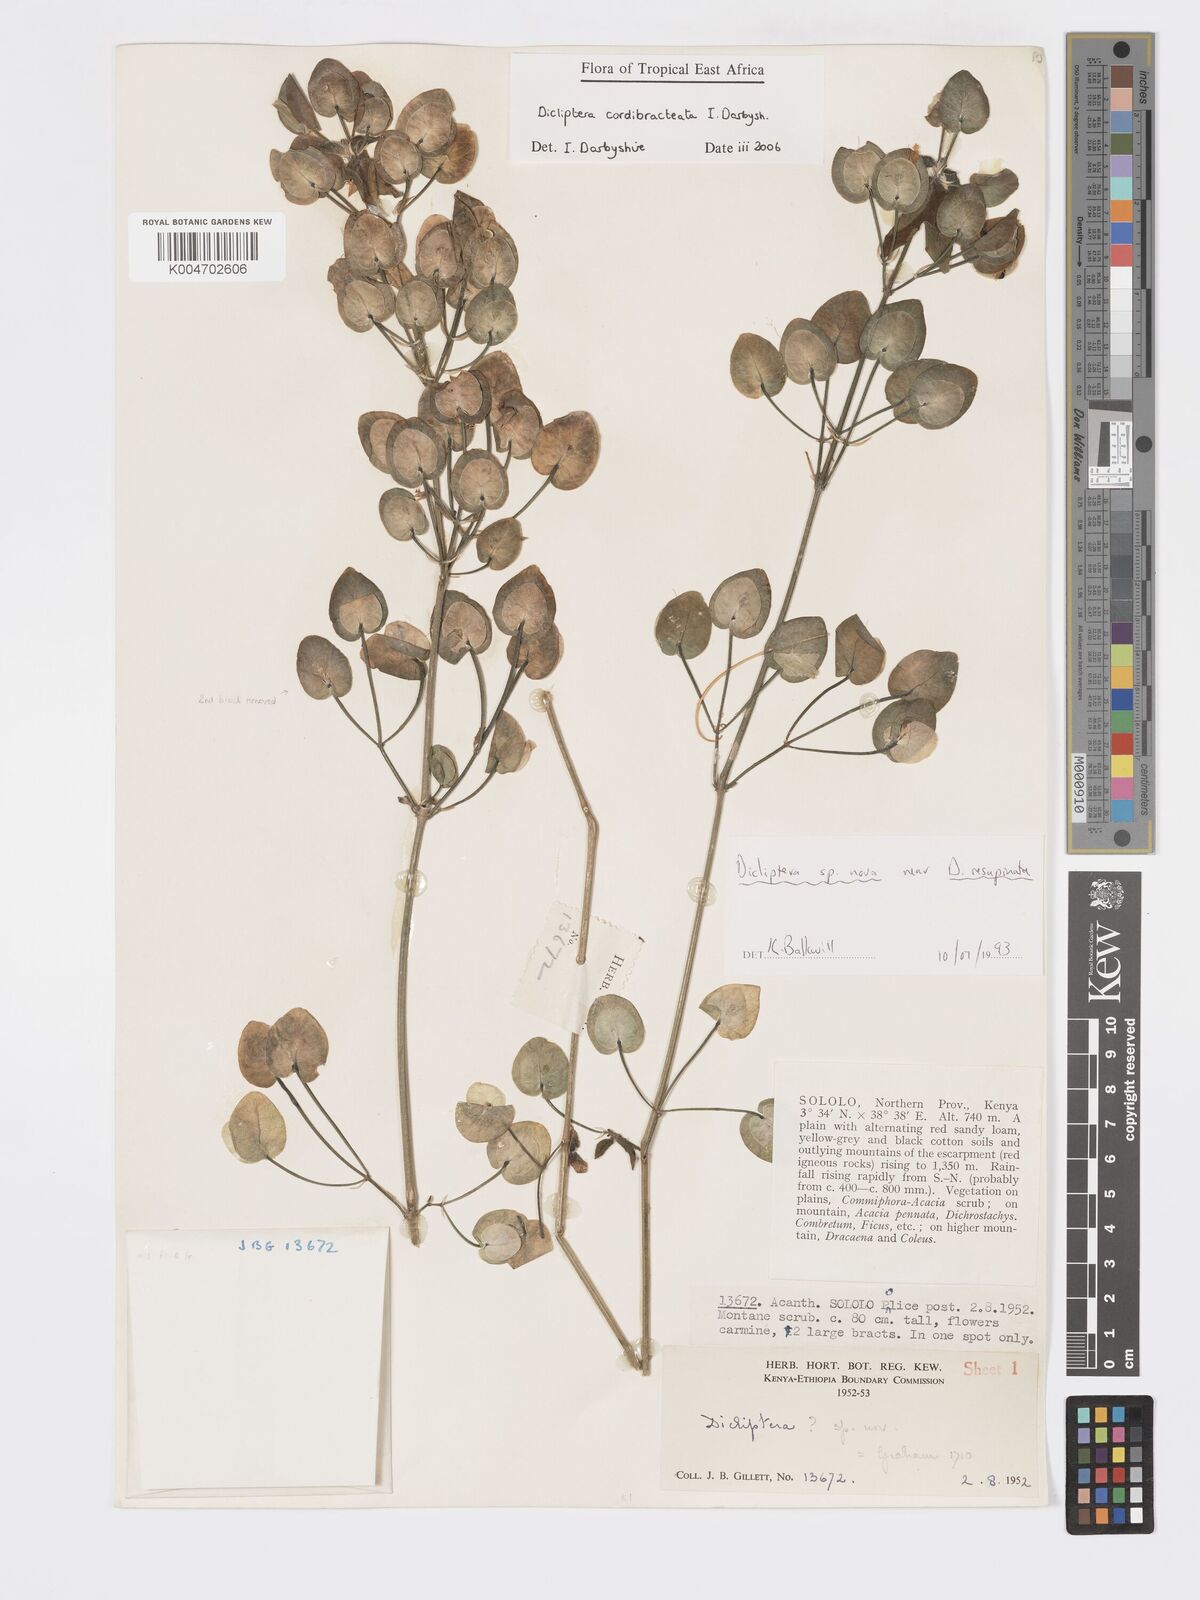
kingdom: Plantae
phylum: Tracheophyta
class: Magnoliopsida
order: Lamiales
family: Acanthaceae
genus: Dicliptera
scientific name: Dicliptera cordibracteata
